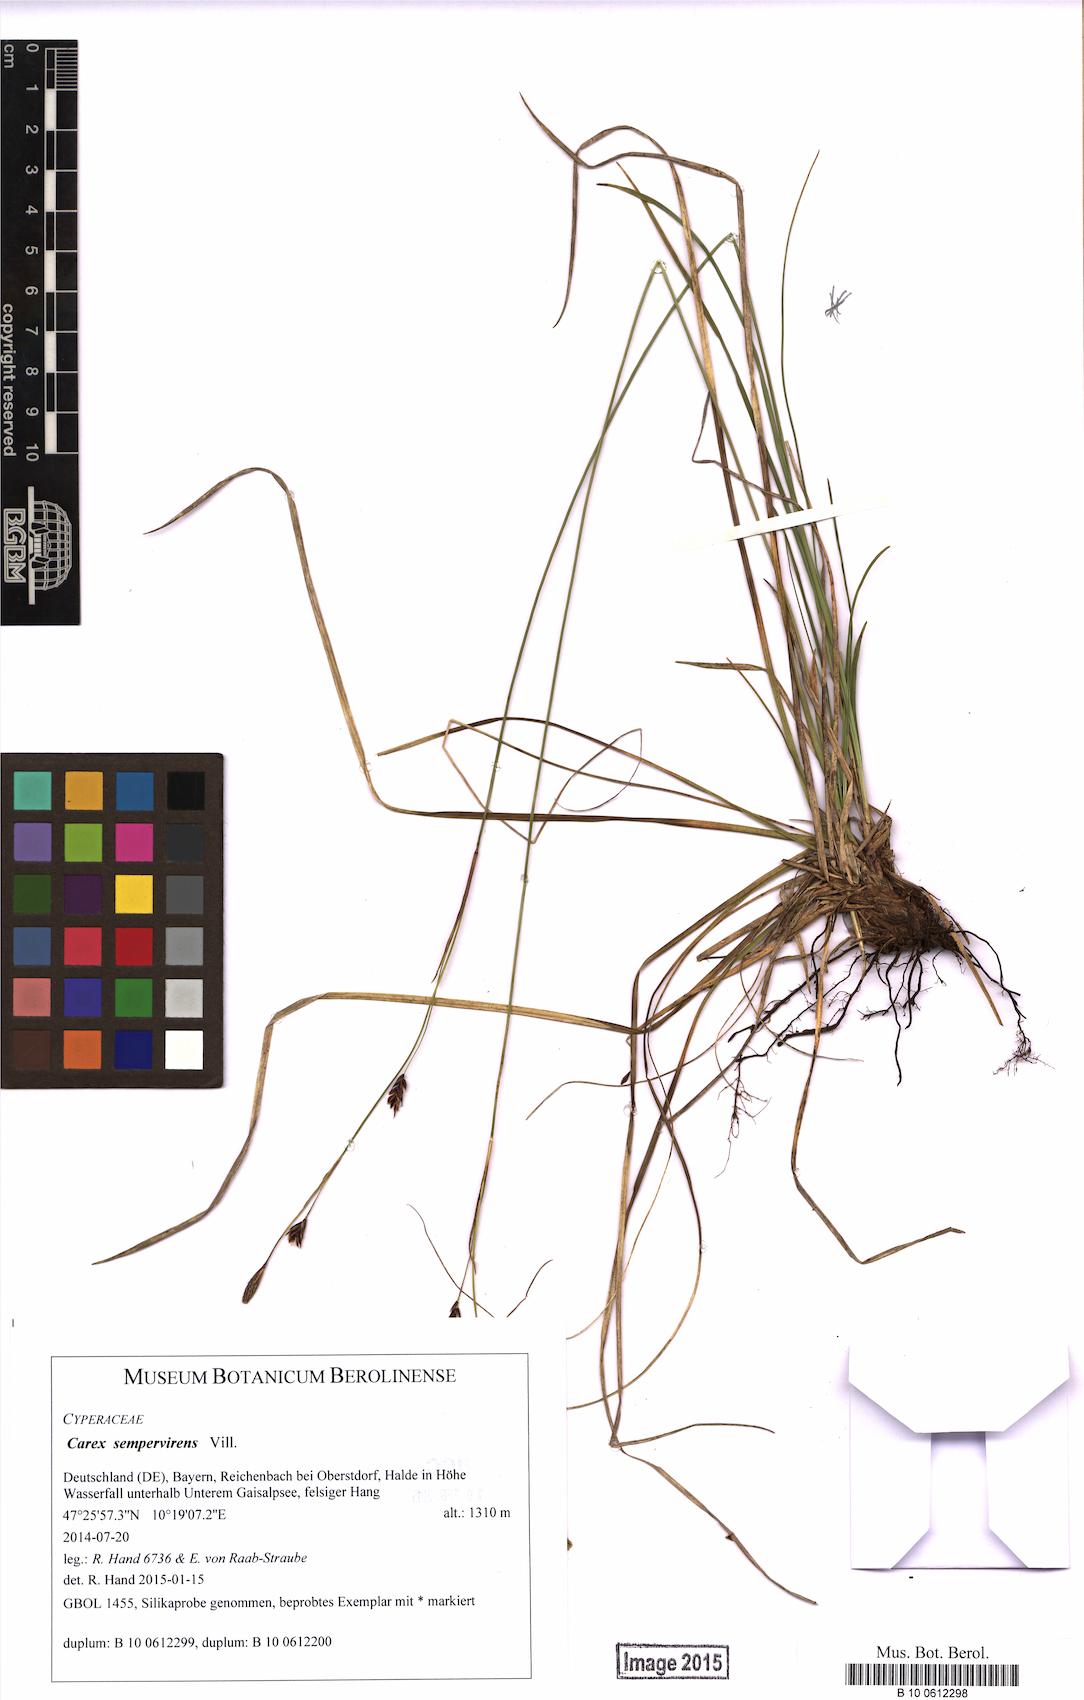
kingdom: Plantae
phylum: Tracheophyta
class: Liliopsida
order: Poales
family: Cyperaceae
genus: Carex
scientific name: Carex sempervirens
